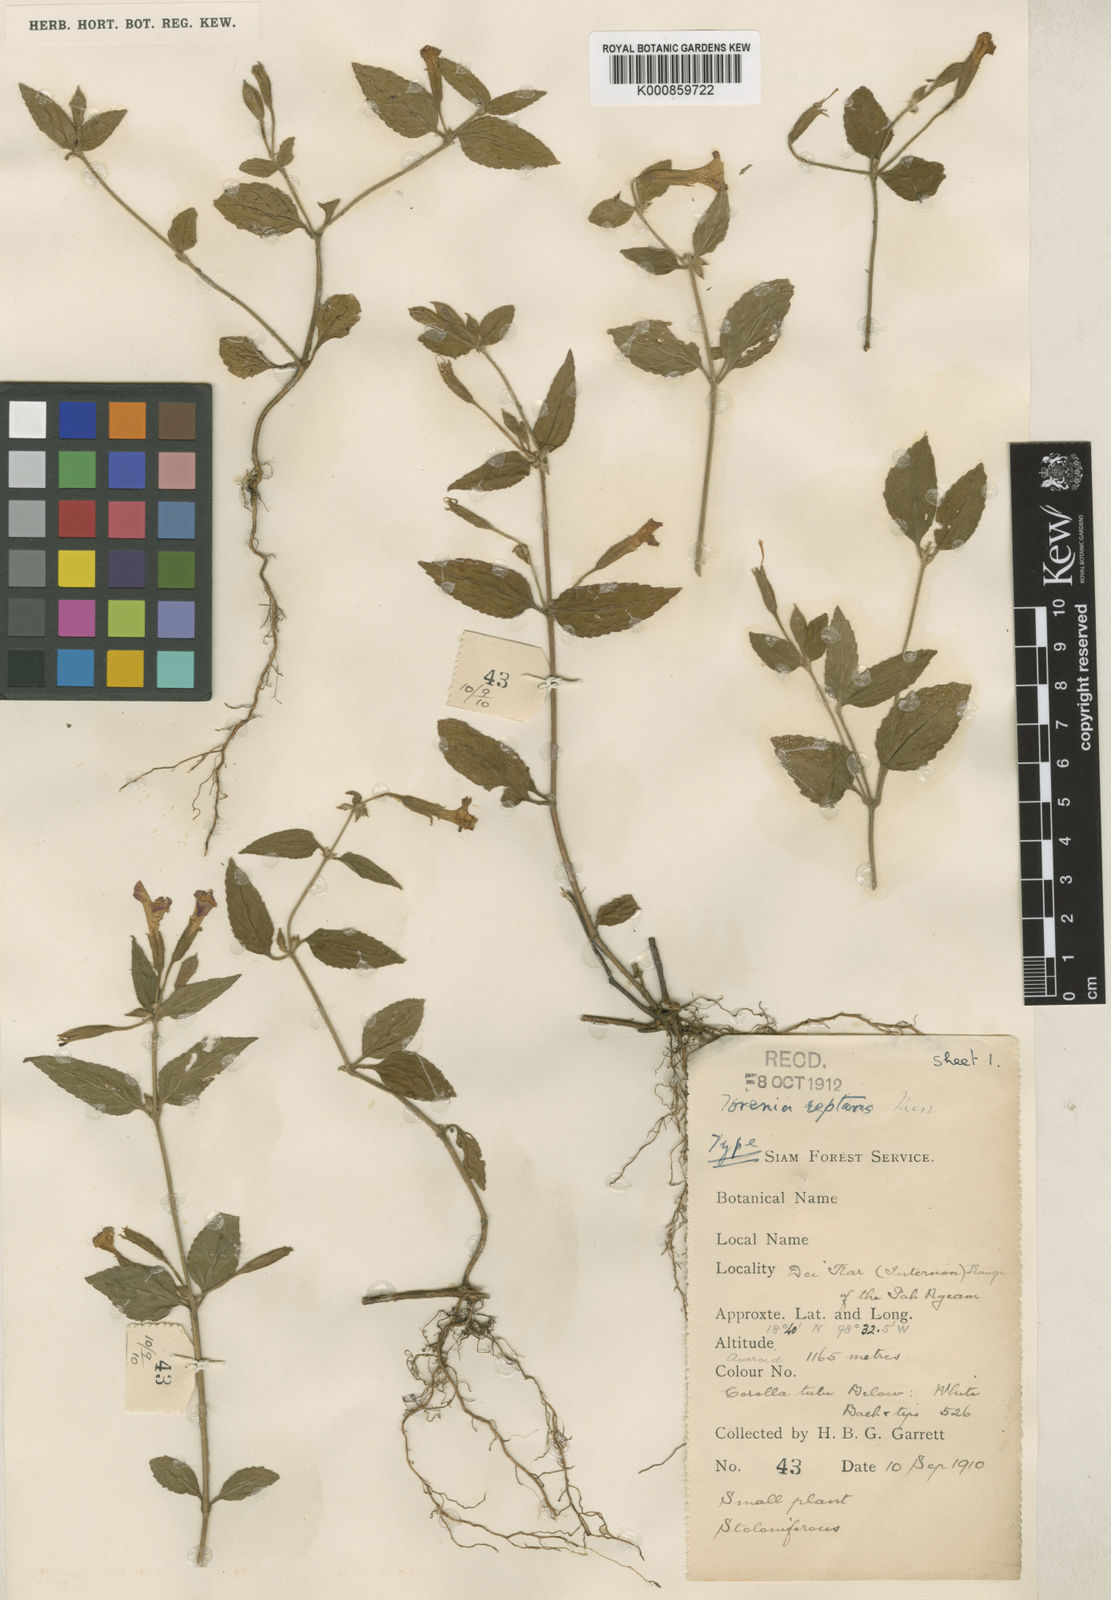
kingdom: Plantae
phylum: Tracheophyta
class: Magnoliopsida
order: Lamiales
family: Linderniaceae
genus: Torenia
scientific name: Torenia pierreana
